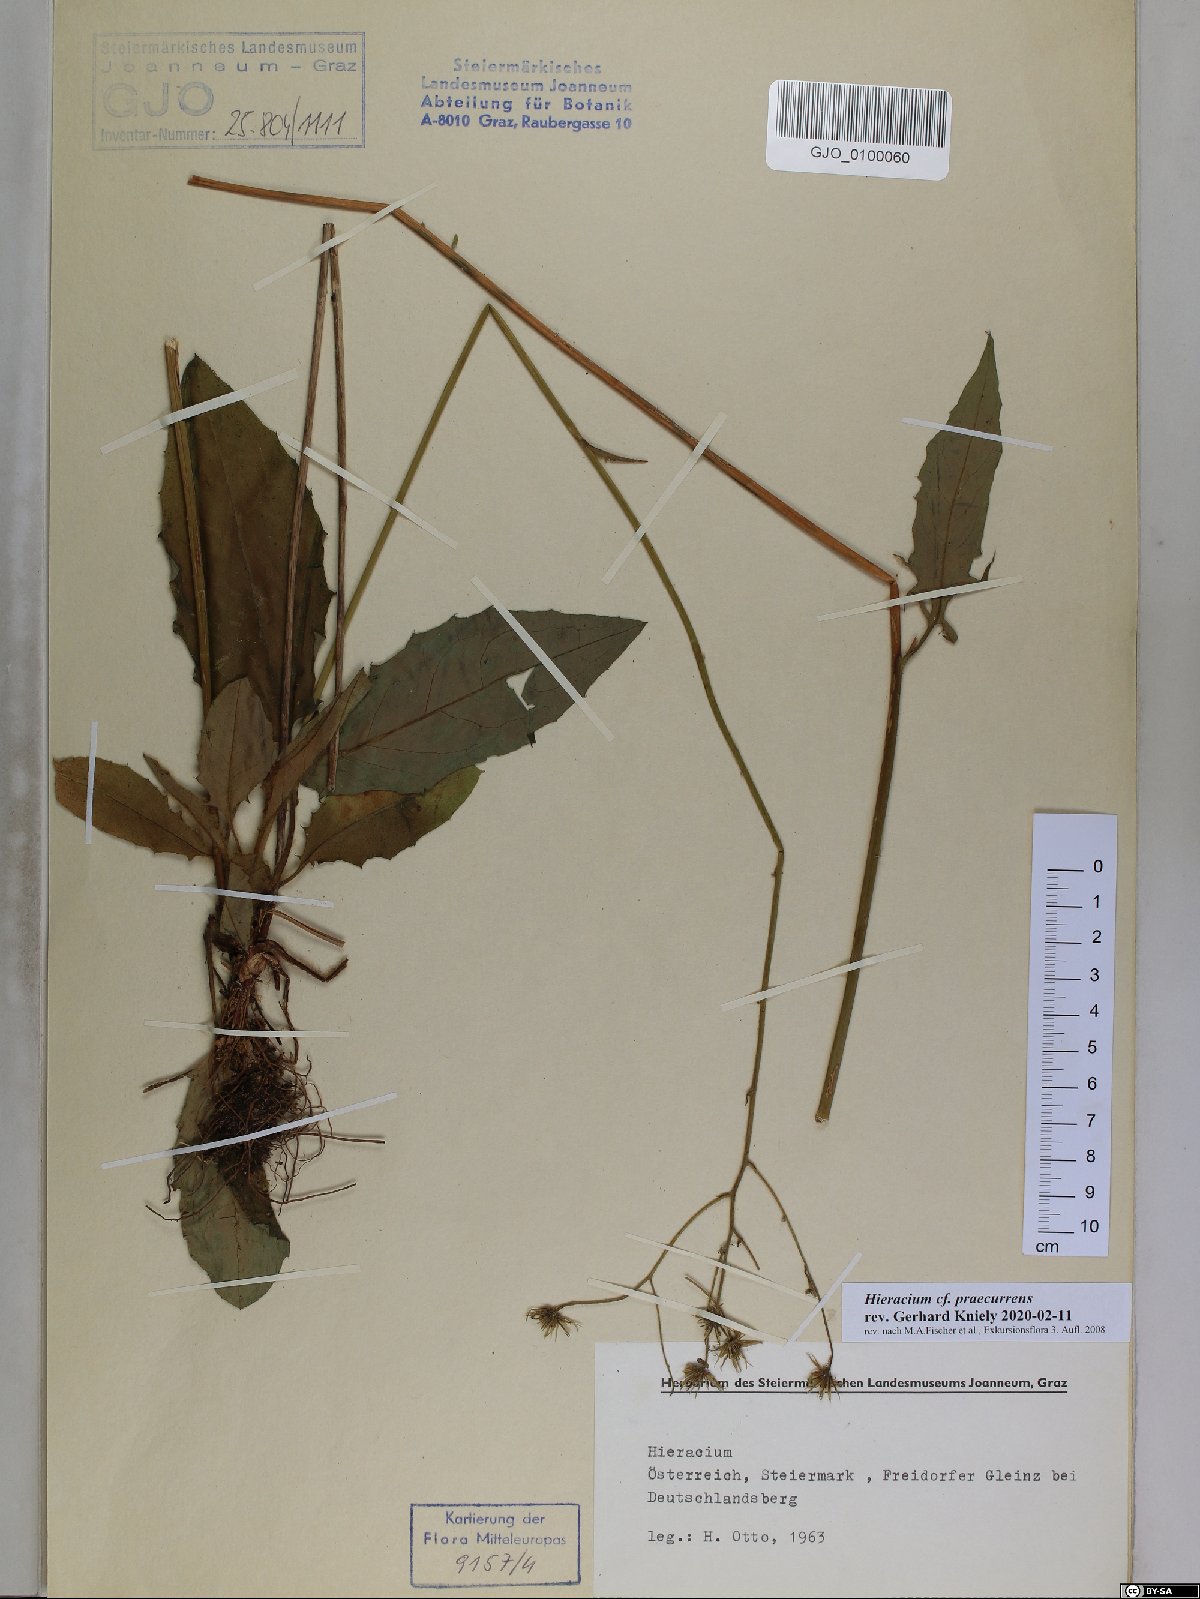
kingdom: Plantae
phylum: Tracheophyta
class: Magnoliopsida
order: Asterales
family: Asteraceae
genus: Hieracium
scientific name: Hieracium rotundatum
